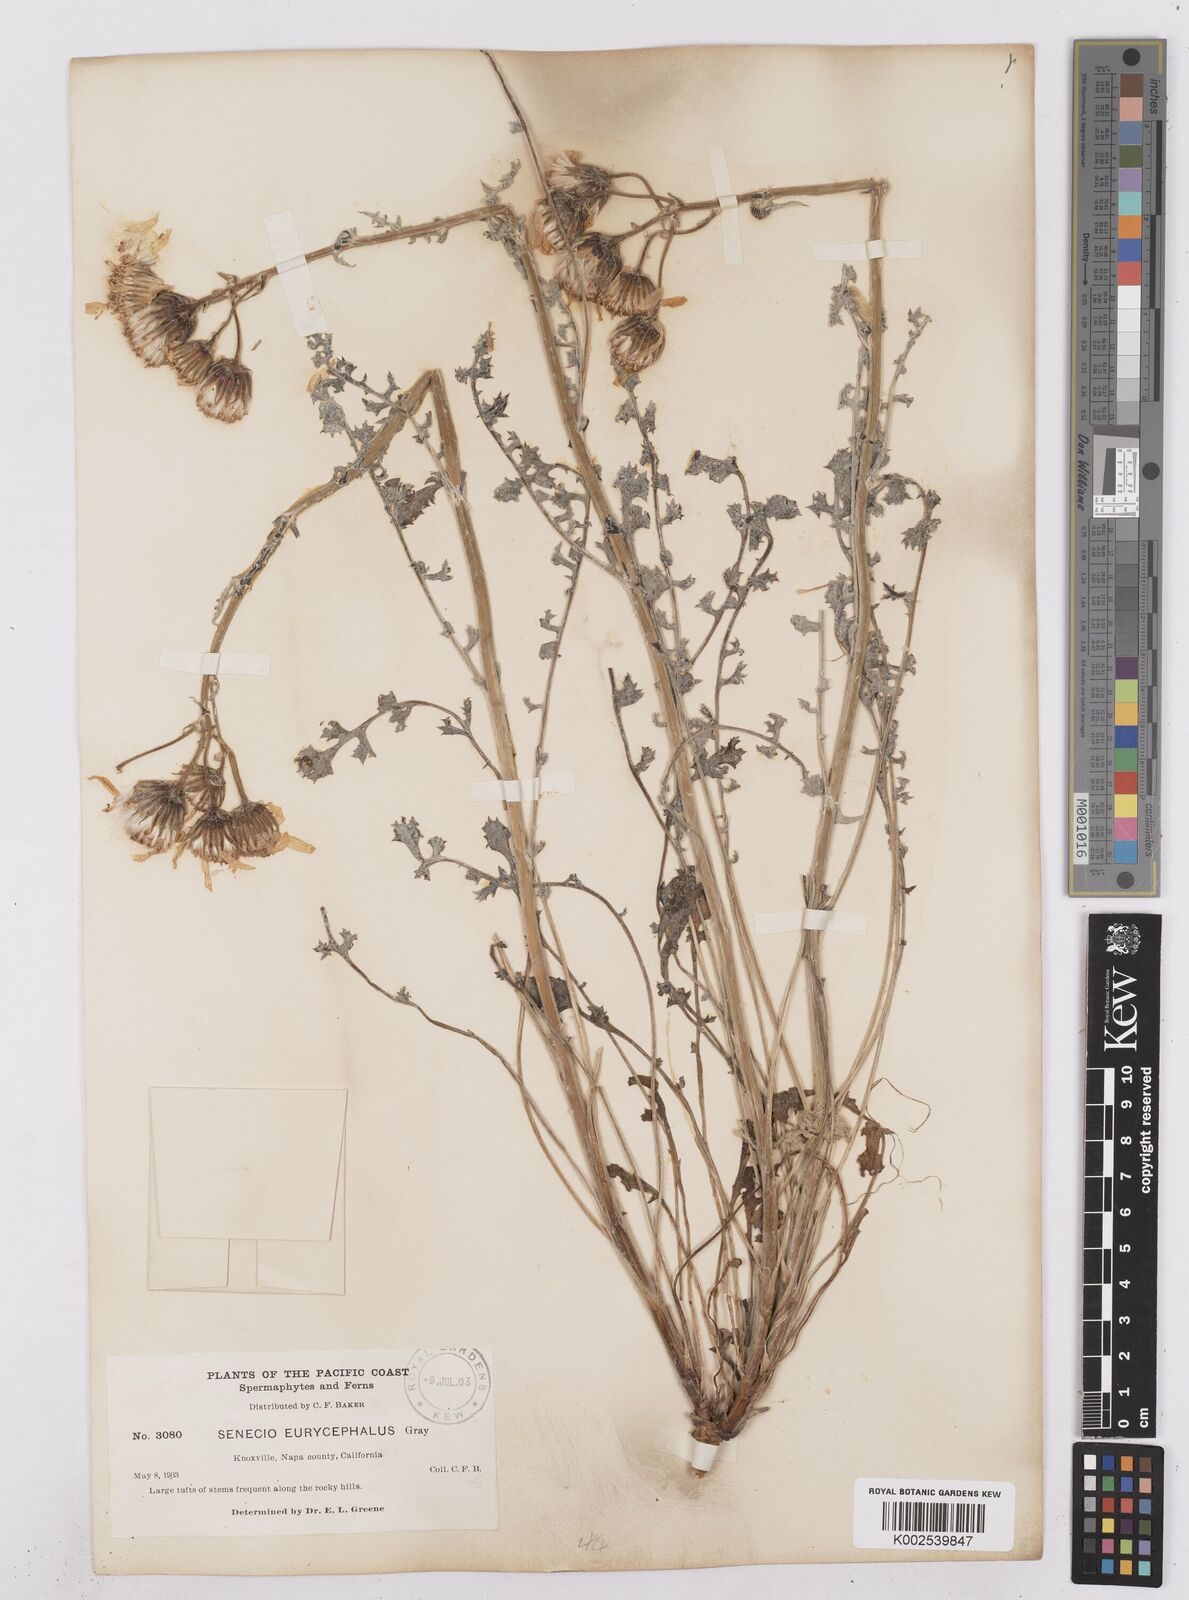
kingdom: Plantae
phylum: Tracheophyta
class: Magnoliopsida
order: Asterales
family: Asteraceae
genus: Packera
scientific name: Packera eurycephala
